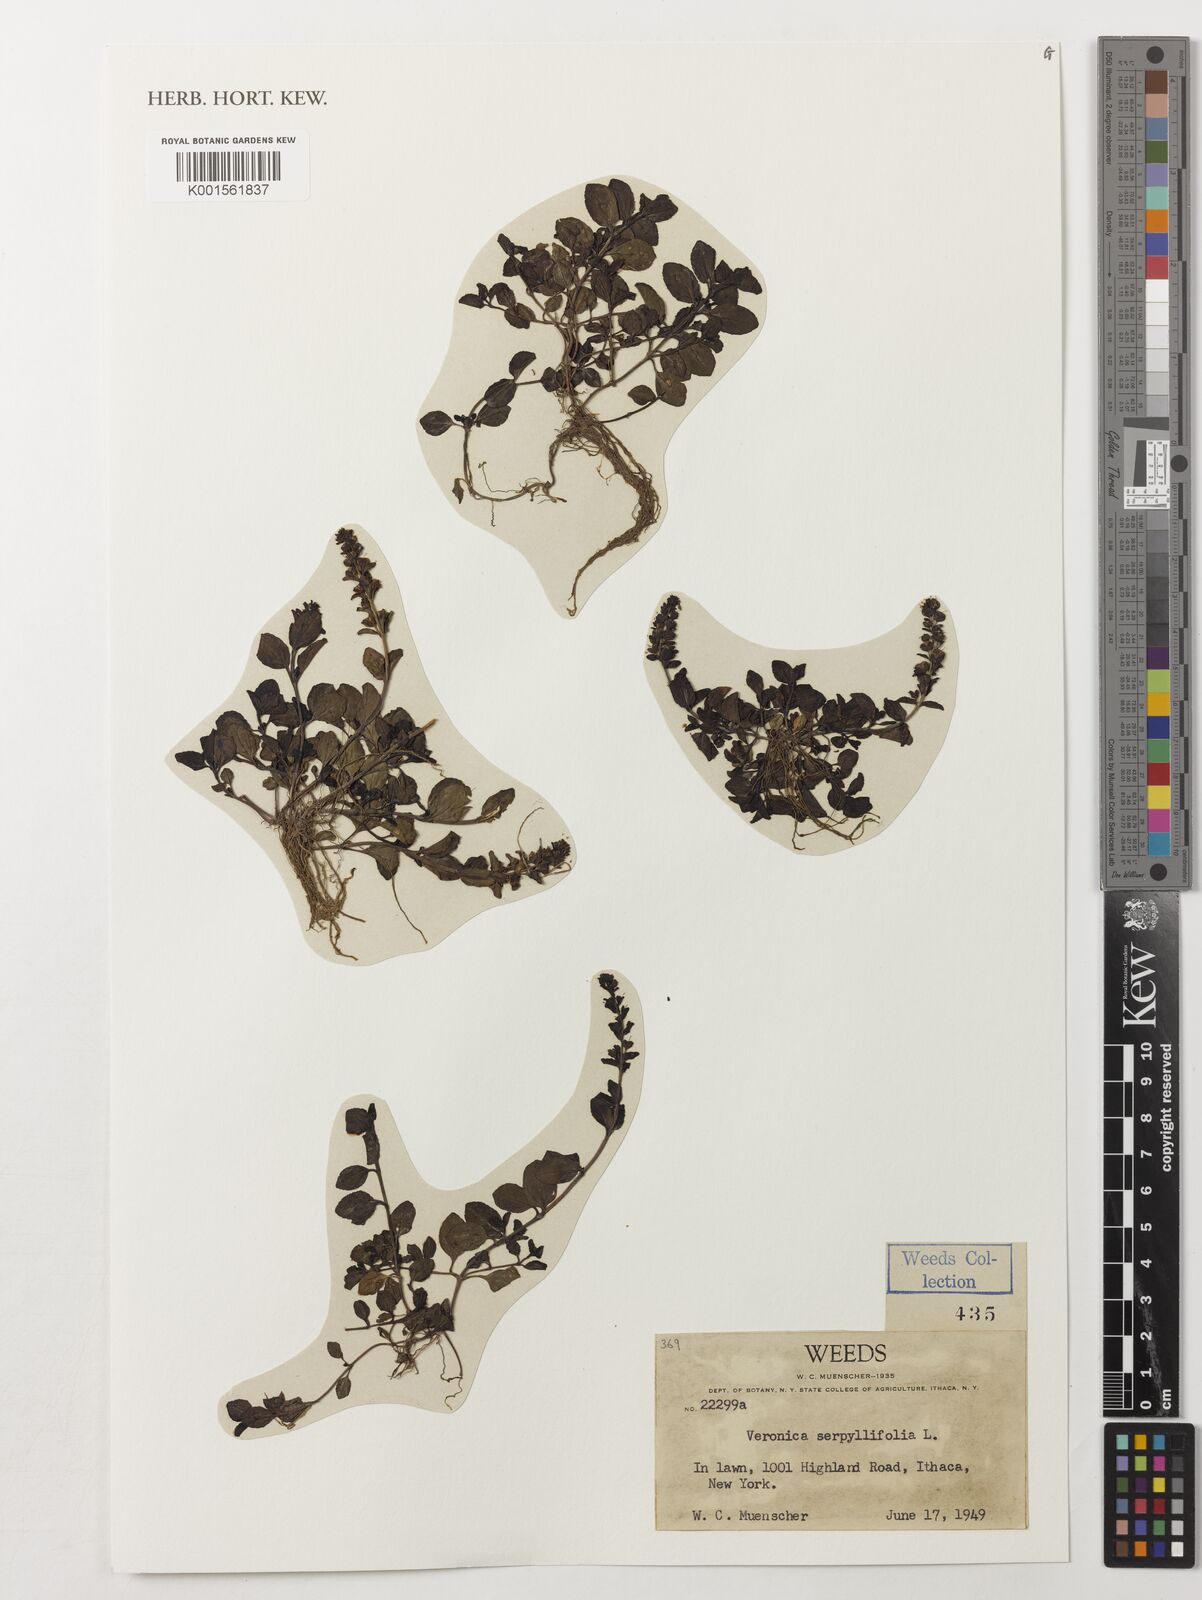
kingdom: Plantae
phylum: Tracheophyta
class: Magnoliopsida
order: Lamiales
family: Plantaginaceae
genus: Veronica
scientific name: Veronica serpyllifolia
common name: Thyme-leaved speedwell
